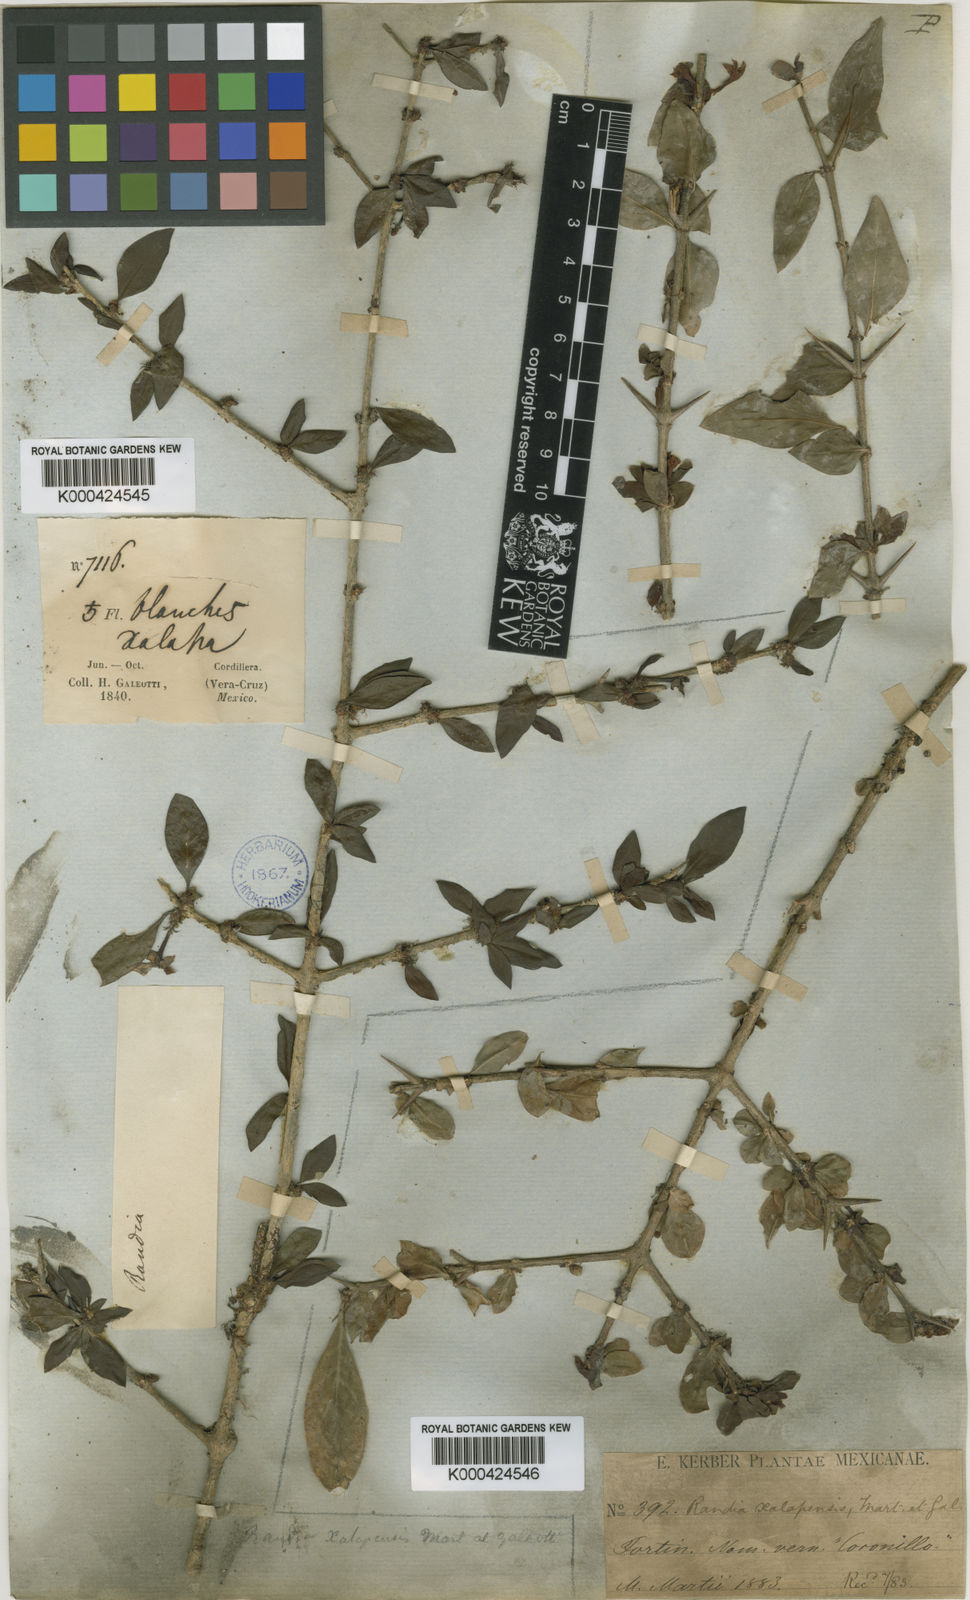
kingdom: Plantae
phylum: Tracheophyta
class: Magnoliopsida
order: Gentianales
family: Rubiaceae
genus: Randia
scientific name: Randia xalapensis
